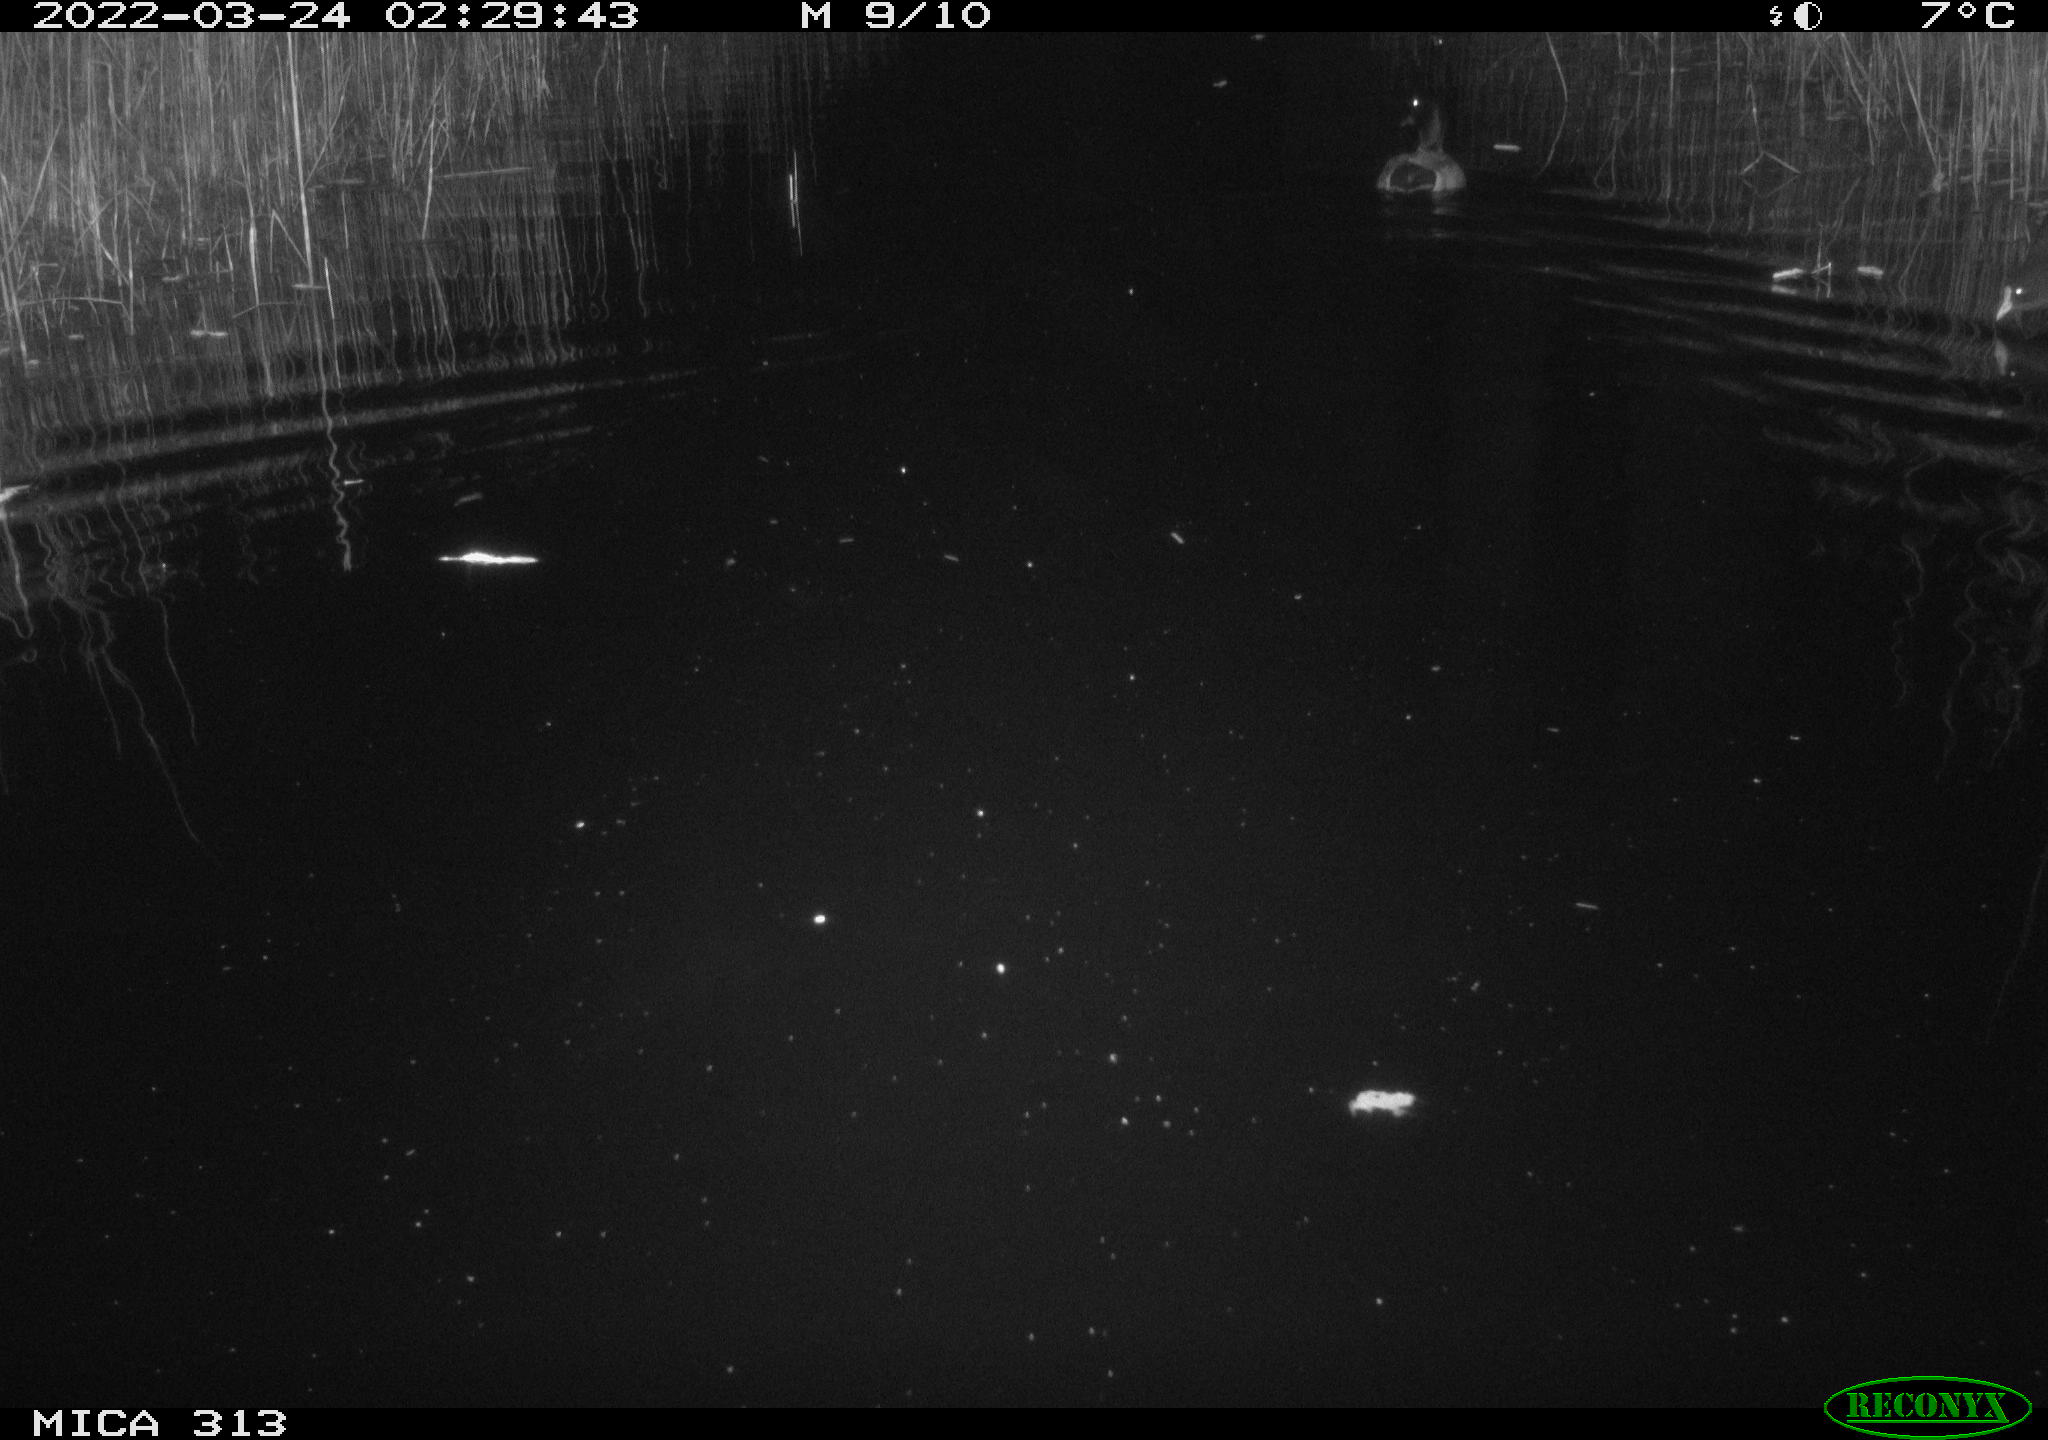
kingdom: Animalia
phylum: Chordata
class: Aves
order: Anseriformes
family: Anatidae
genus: Anas
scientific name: Anas platyrhynchos
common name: Mallard
